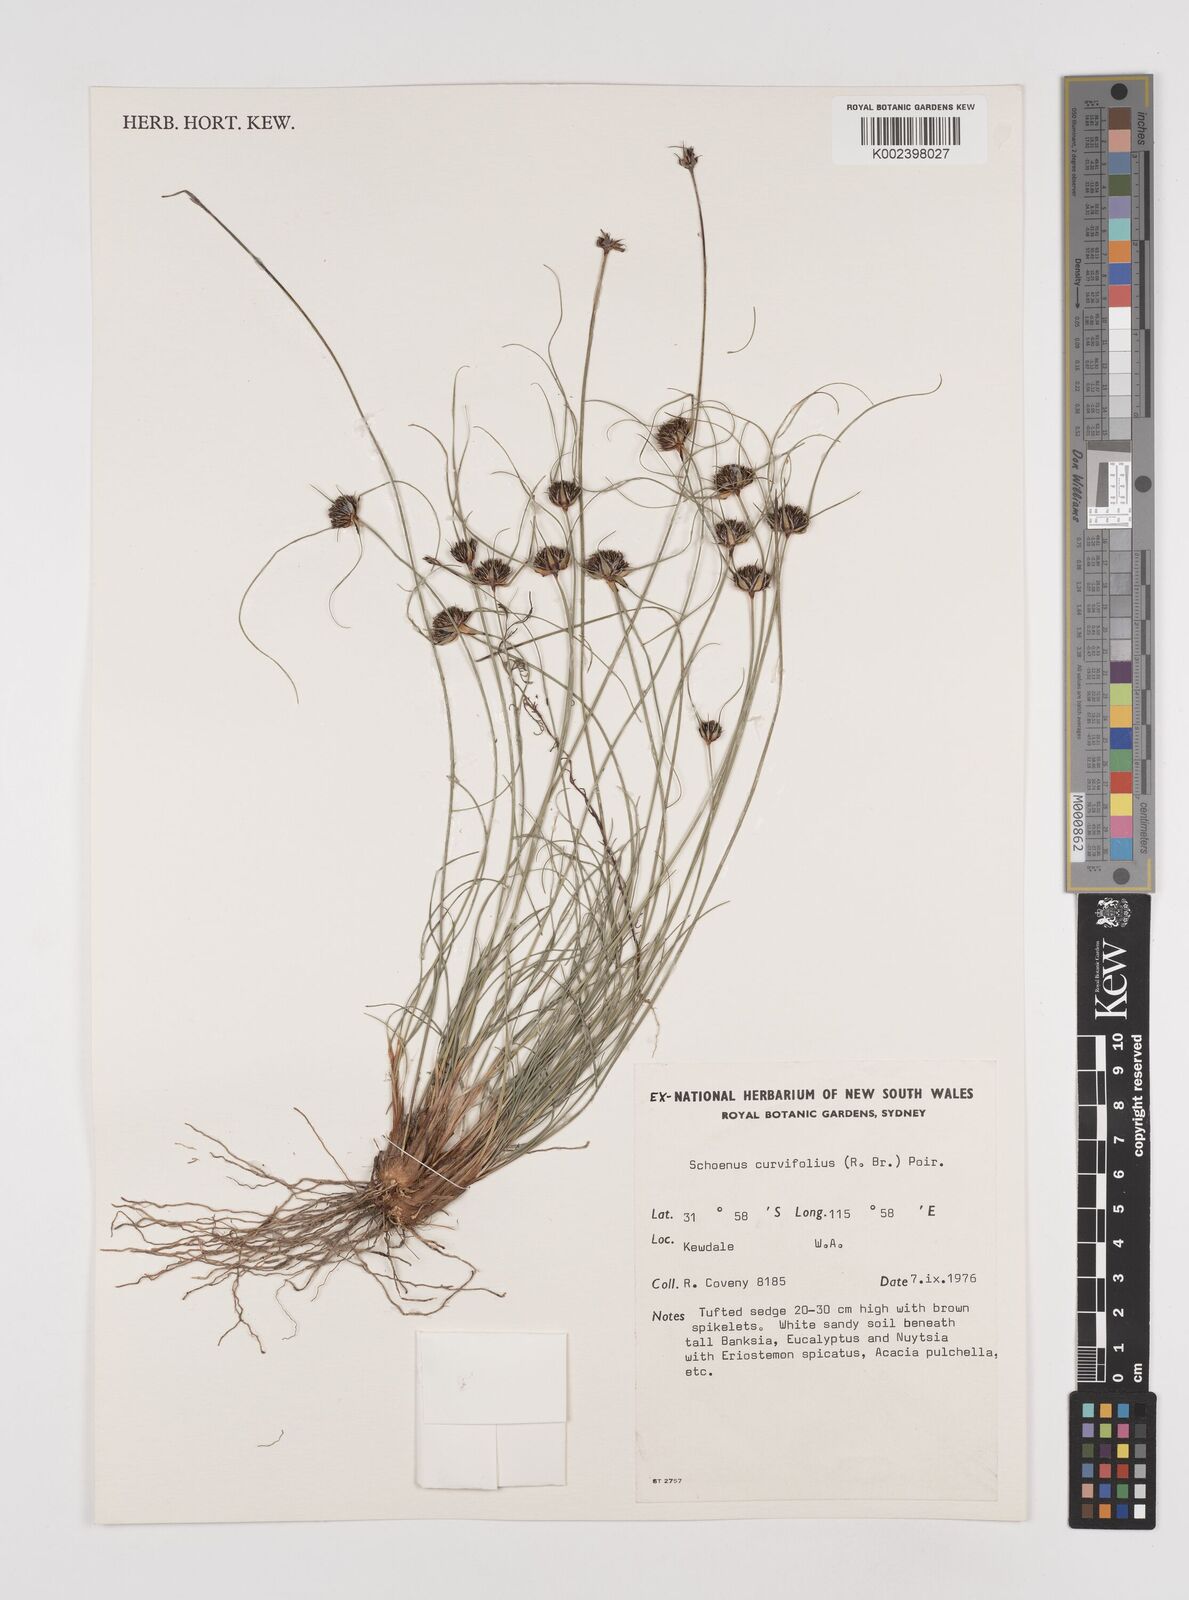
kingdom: Plantae
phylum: Tracheophyta
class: Liliopsida
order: Poales
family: Cyperaceae
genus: Schoenus
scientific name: Schoenus
